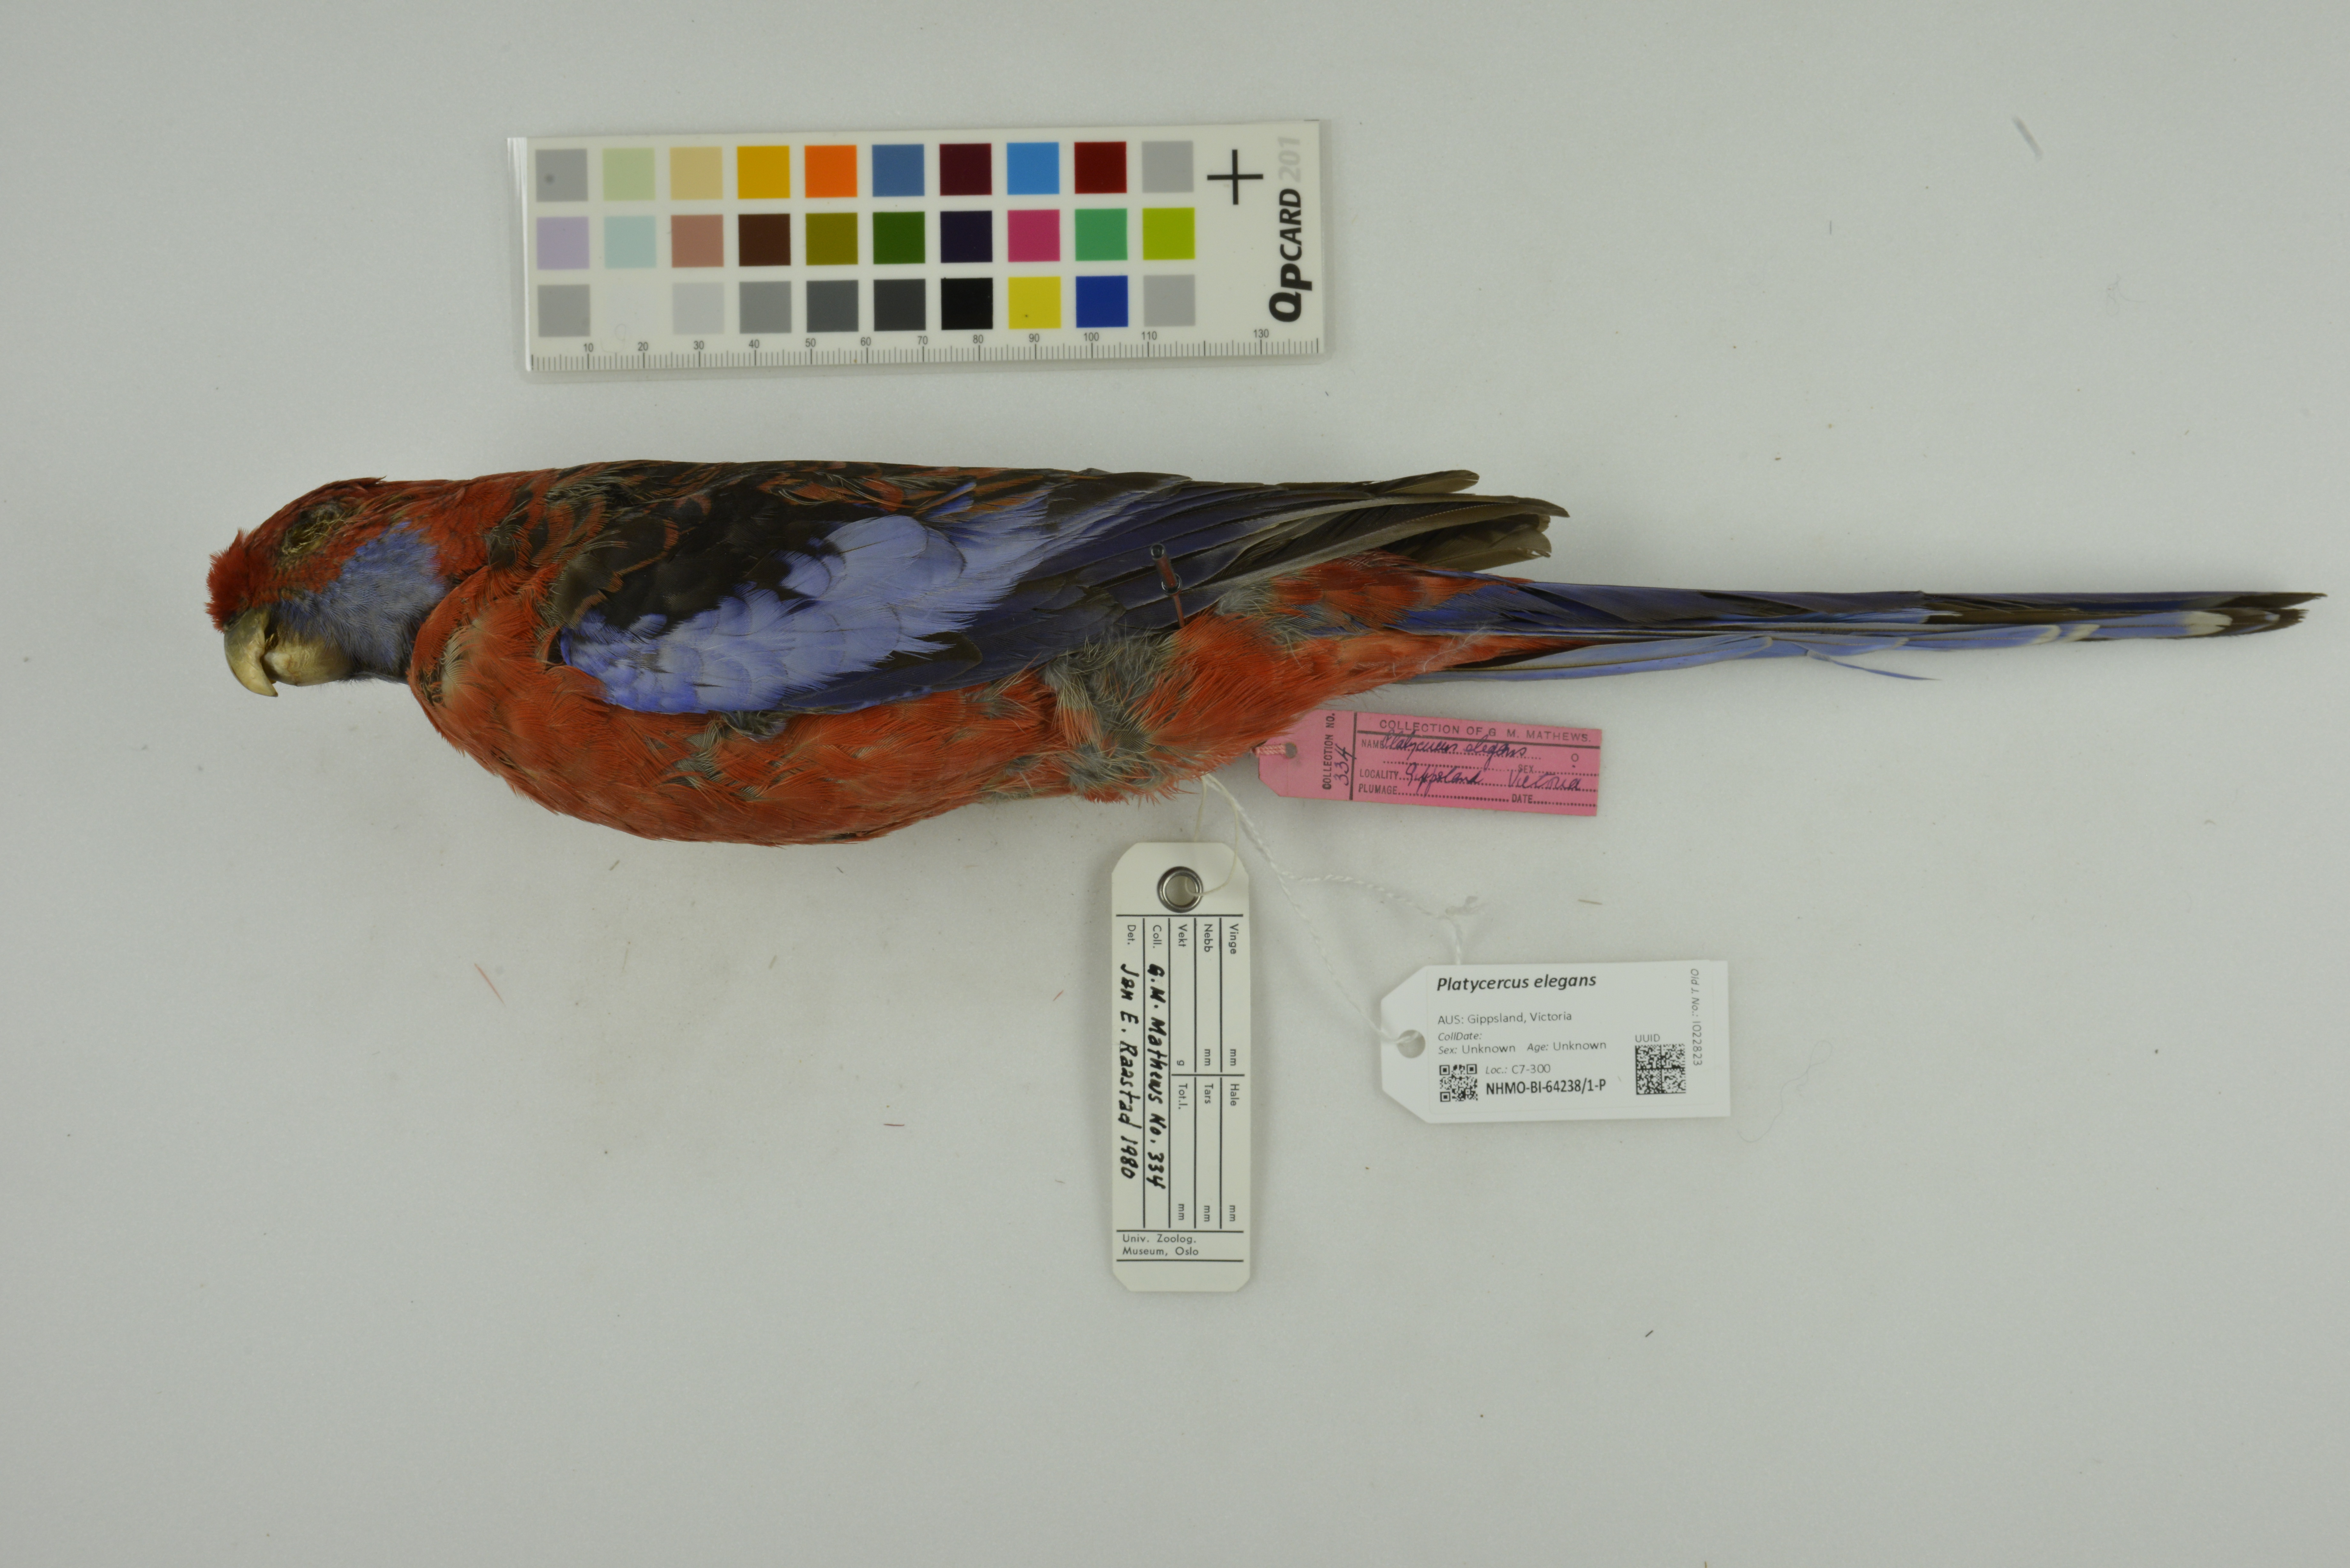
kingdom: Animalia
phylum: Chordata
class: Aves
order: Psittaciformes
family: Psittacidae
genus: Platycercus
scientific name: Platycercus elegans
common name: Crimson rosella
